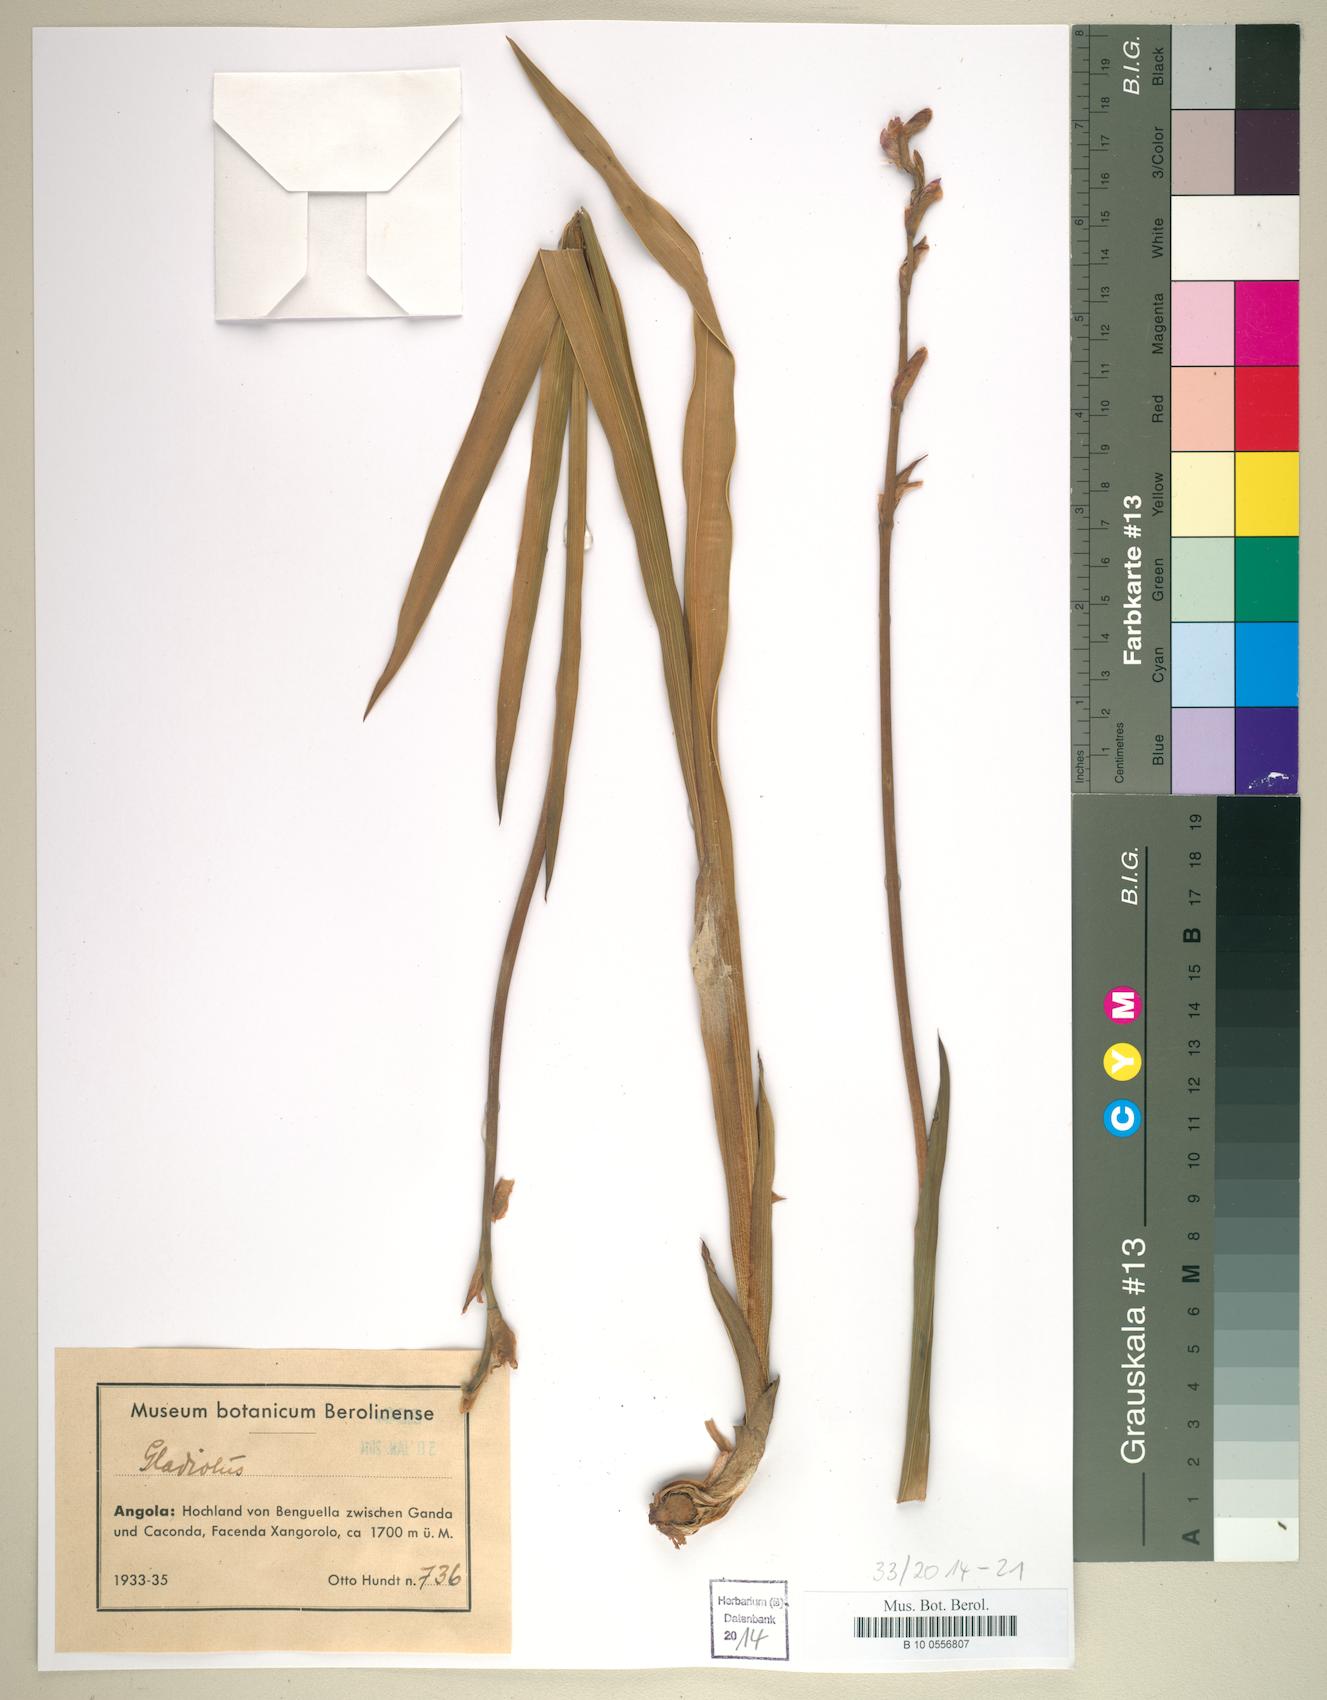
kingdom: Plantae
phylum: Tracheophyta
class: Liliopsida
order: Asparagales
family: Iridaceae
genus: Gladiolus
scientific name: Gladiolus
